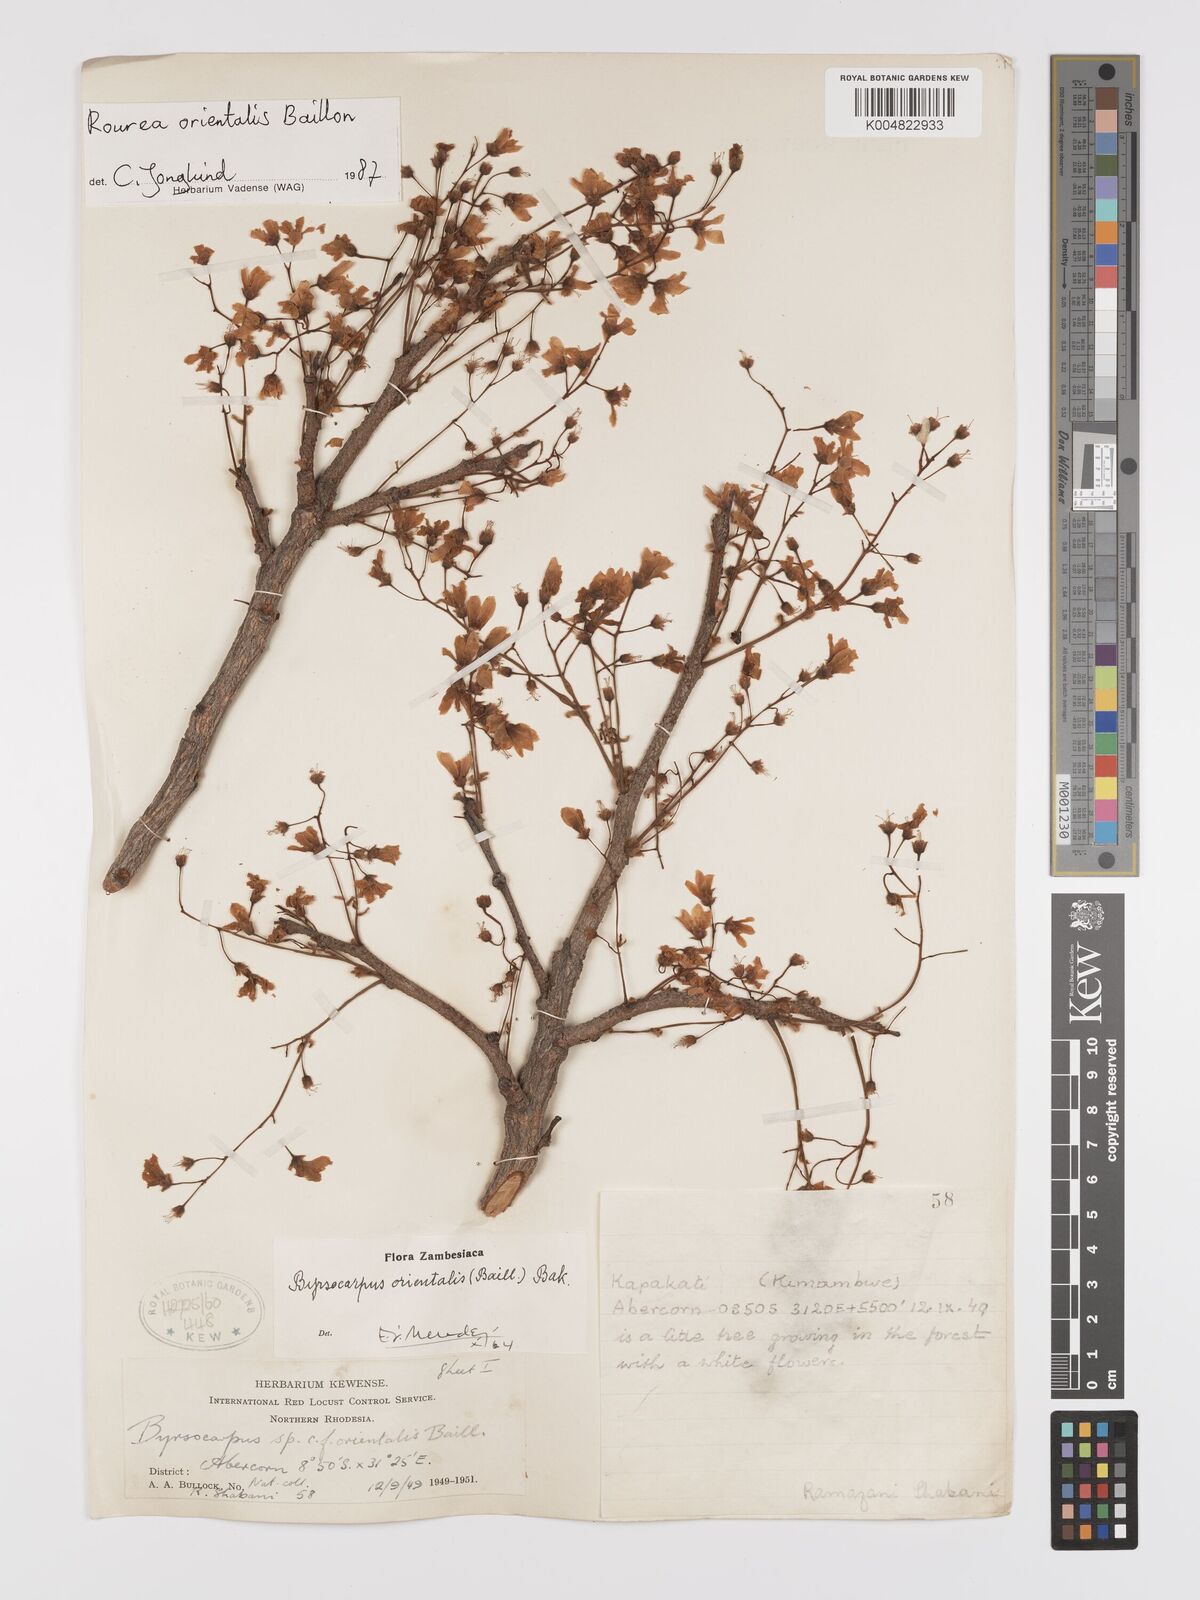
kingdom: Plantae
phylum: Tracheophyta
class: Magnoliopsida
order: Oxalidales
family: Connaraceae
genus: Rourea
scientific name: Rourea orientalis
